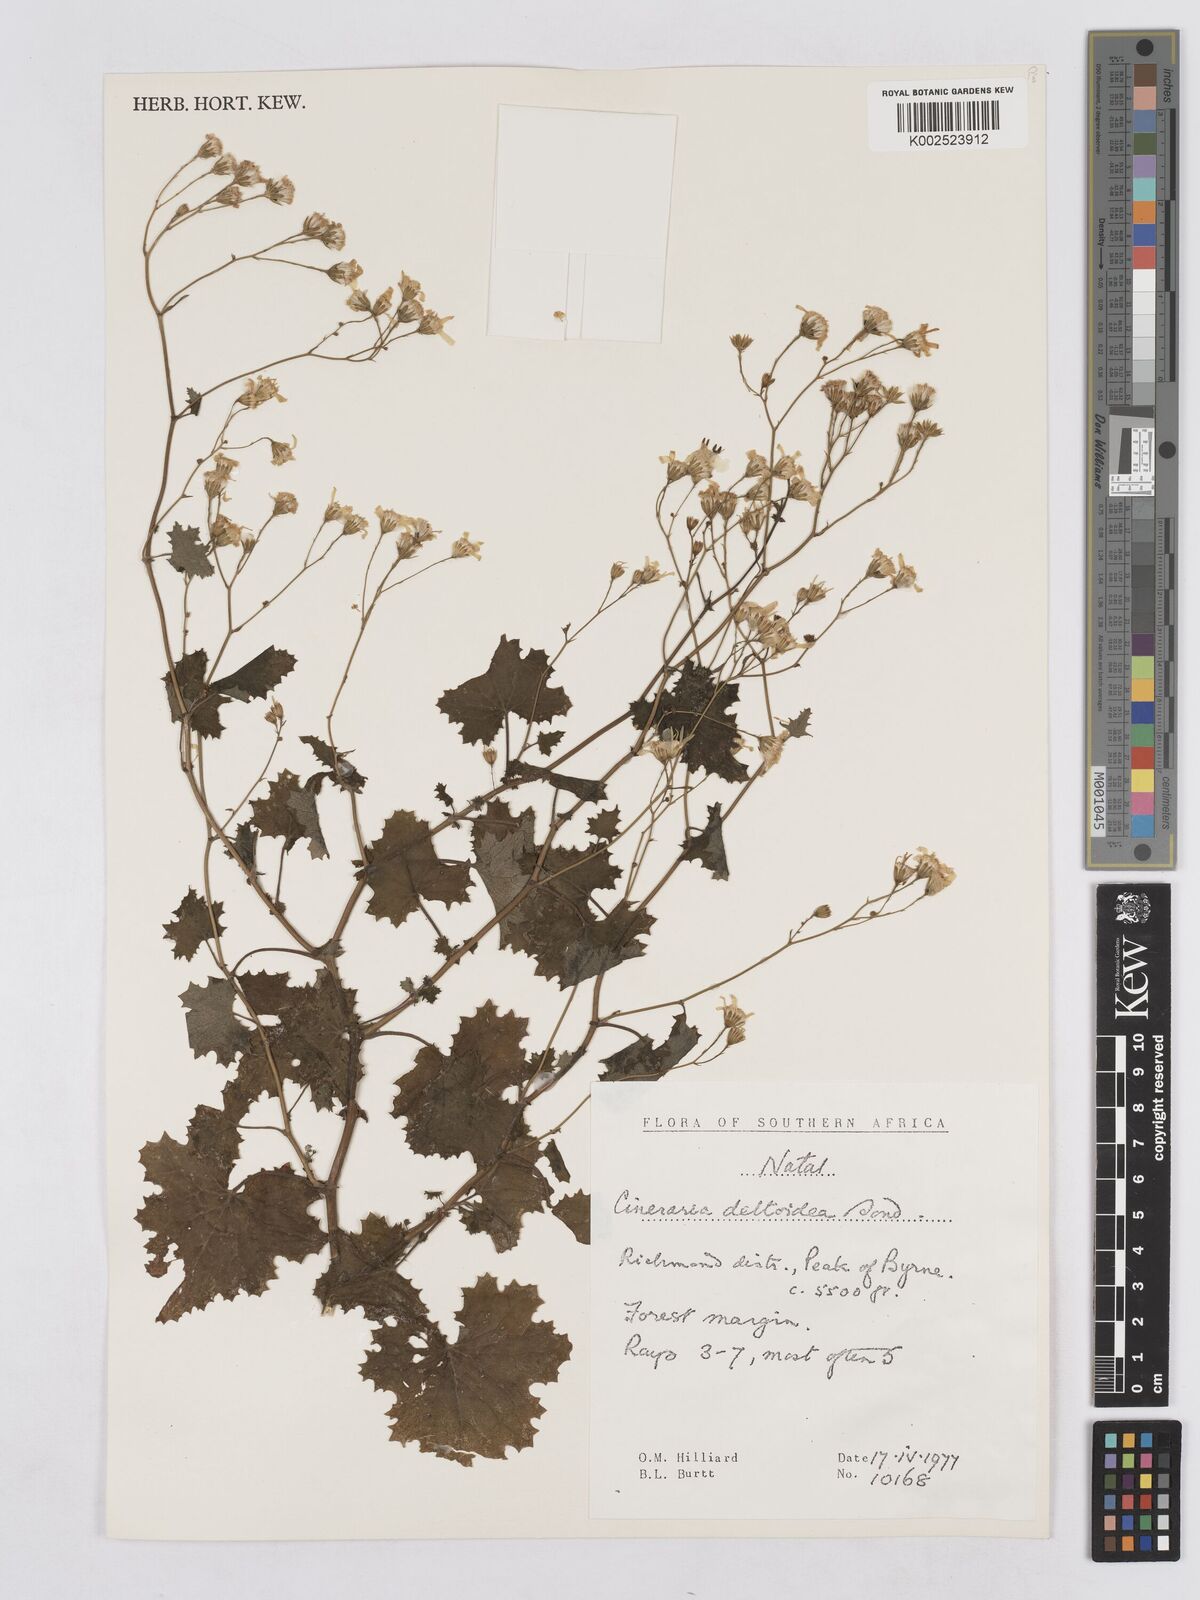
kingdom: Plantae
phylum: Tracheophyta
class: Magnoliopsida
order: Asterales
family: Asteraceae
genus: Senecio
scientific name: Senecio deltoideus
